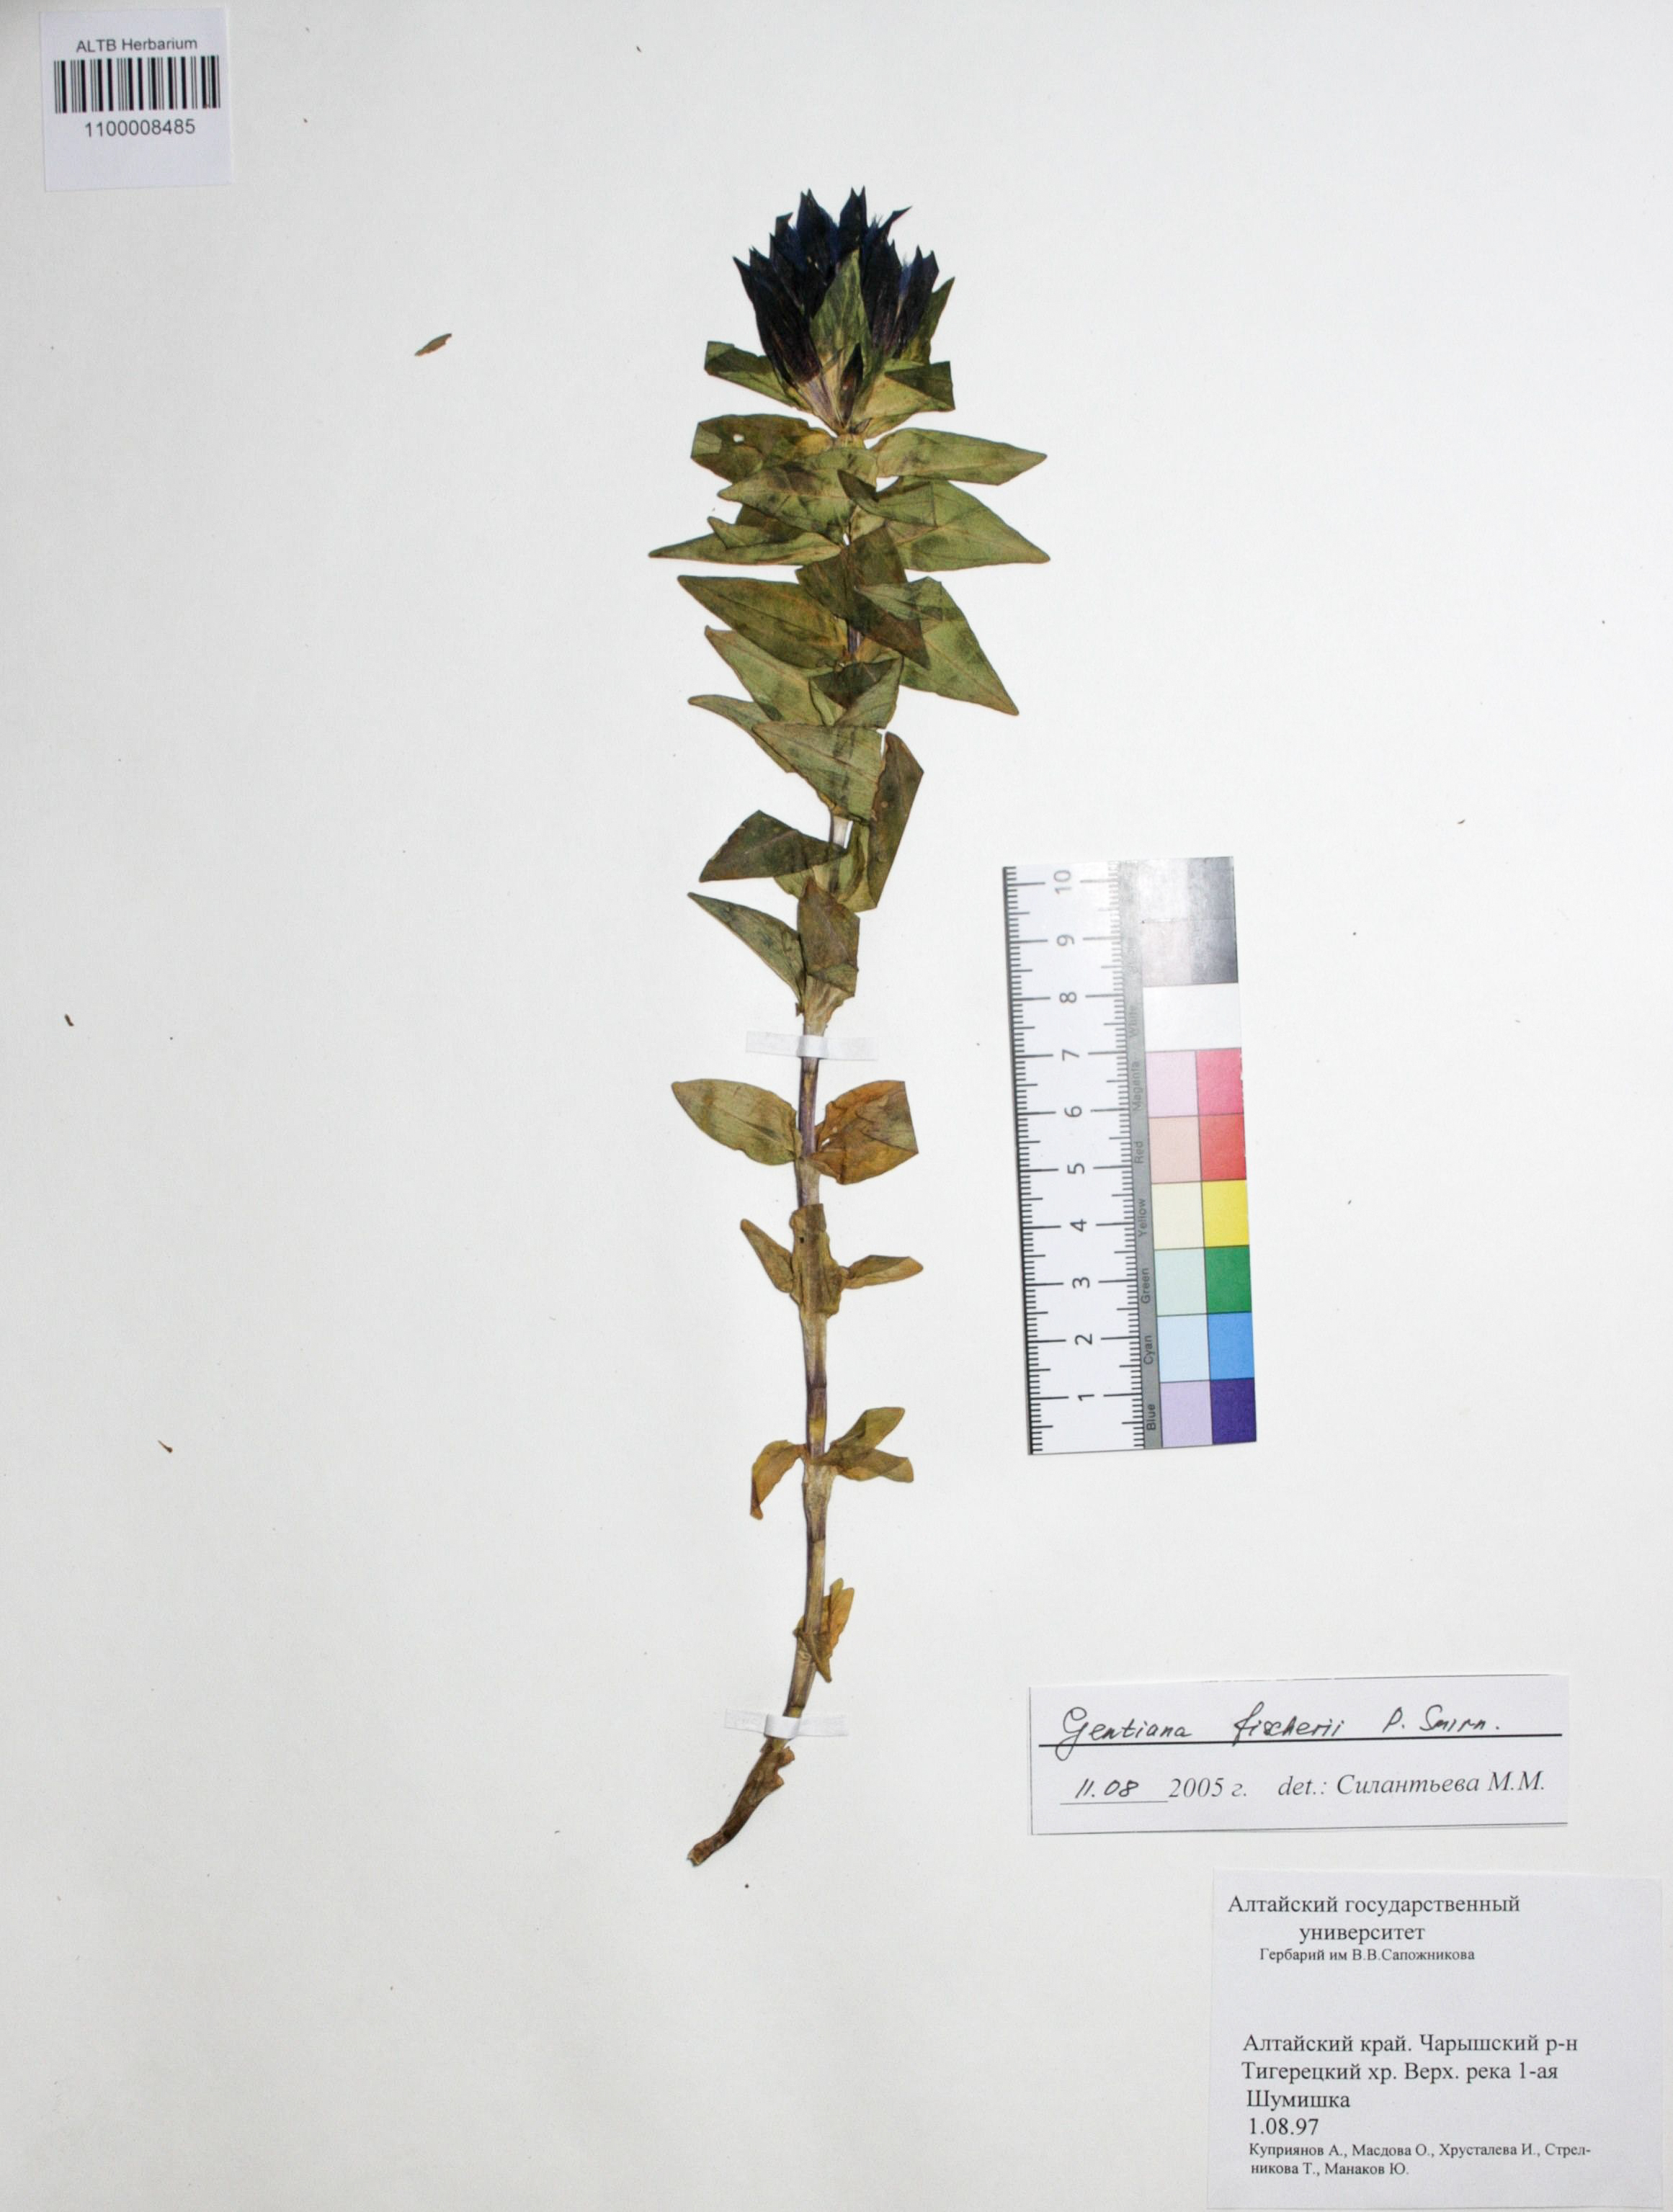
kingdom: Plantae
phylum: Tracheophyta
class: Magnoliopsida
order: Gentianales
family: Gentianaceae
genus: Gentiana
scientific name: Gentiana dschungarica
